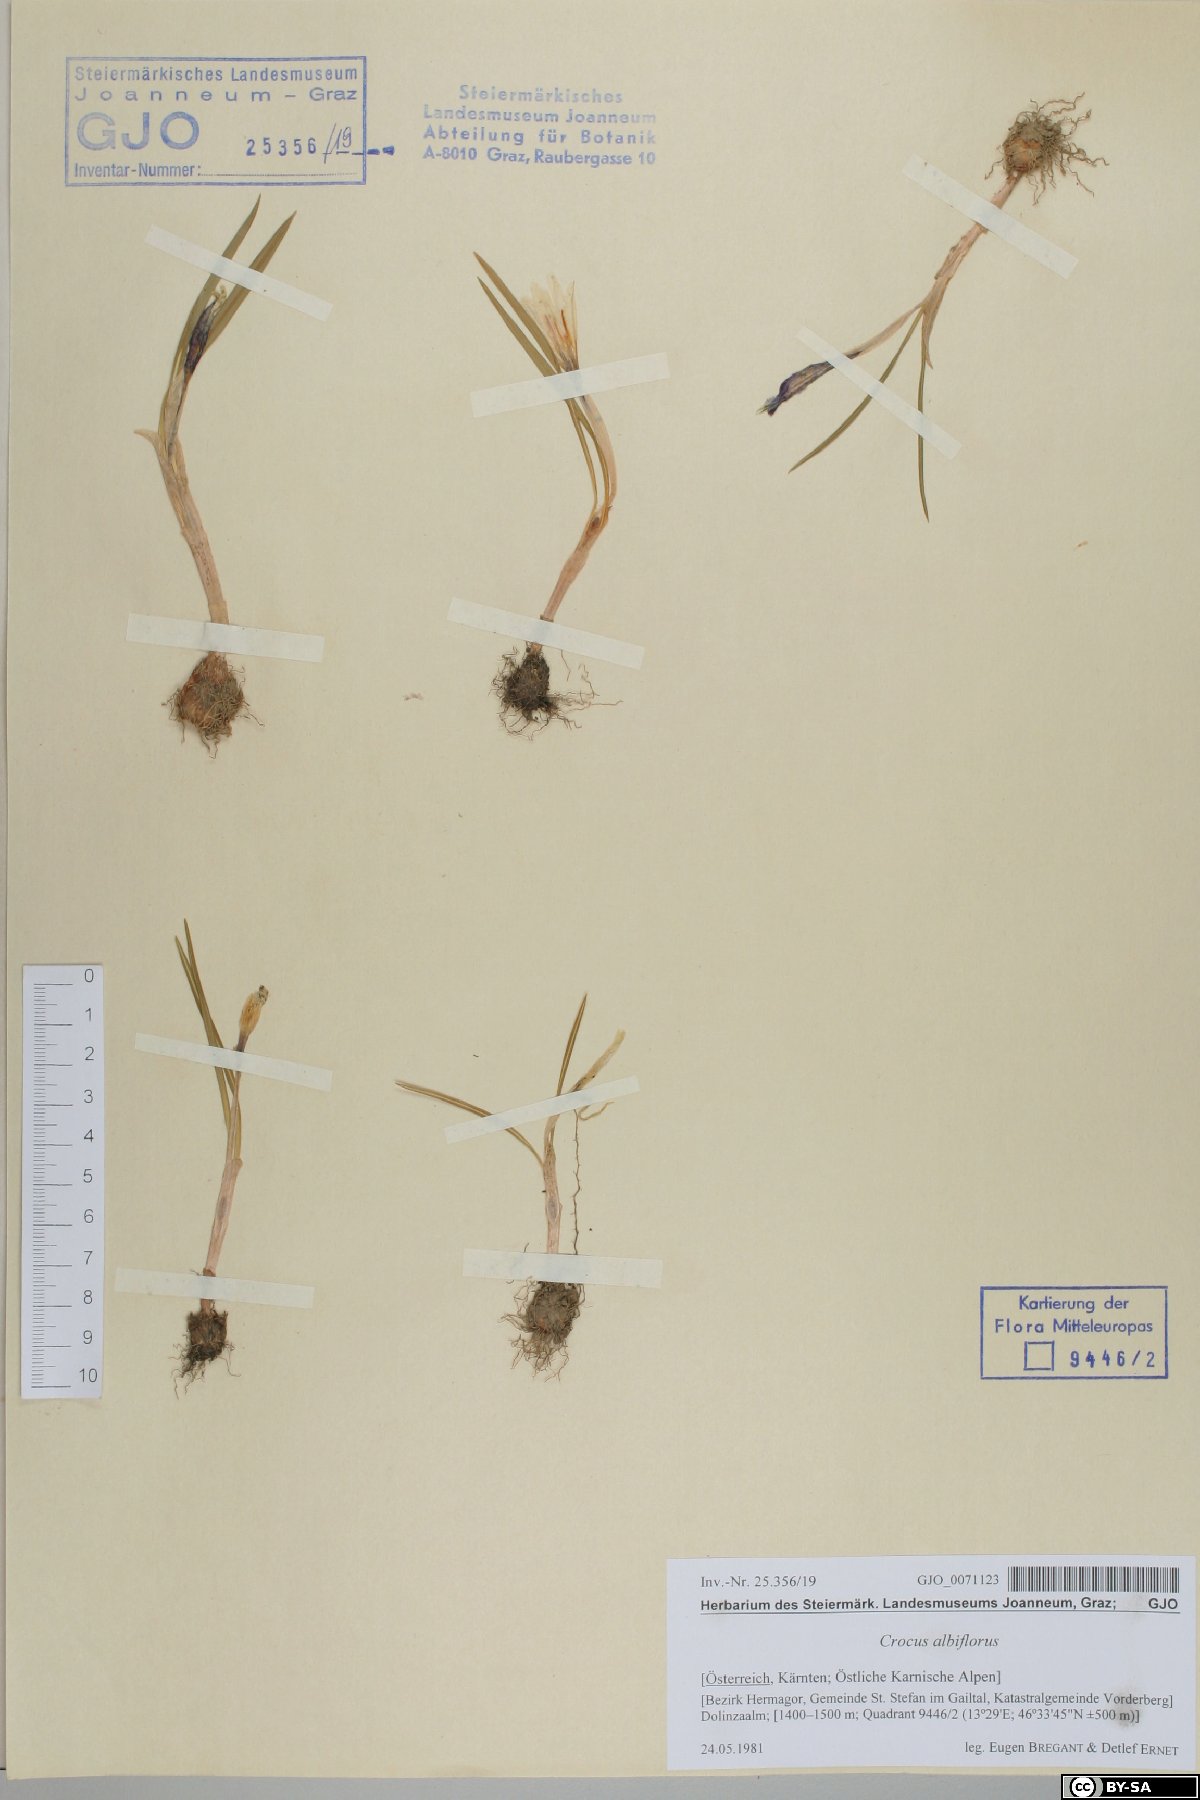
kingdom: Plantae
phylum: Tracheophyta
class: Liliopsida
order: Asparagales
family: Iridaceae
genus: Crocus
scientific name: Crocus vernus
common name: Spring crocus
